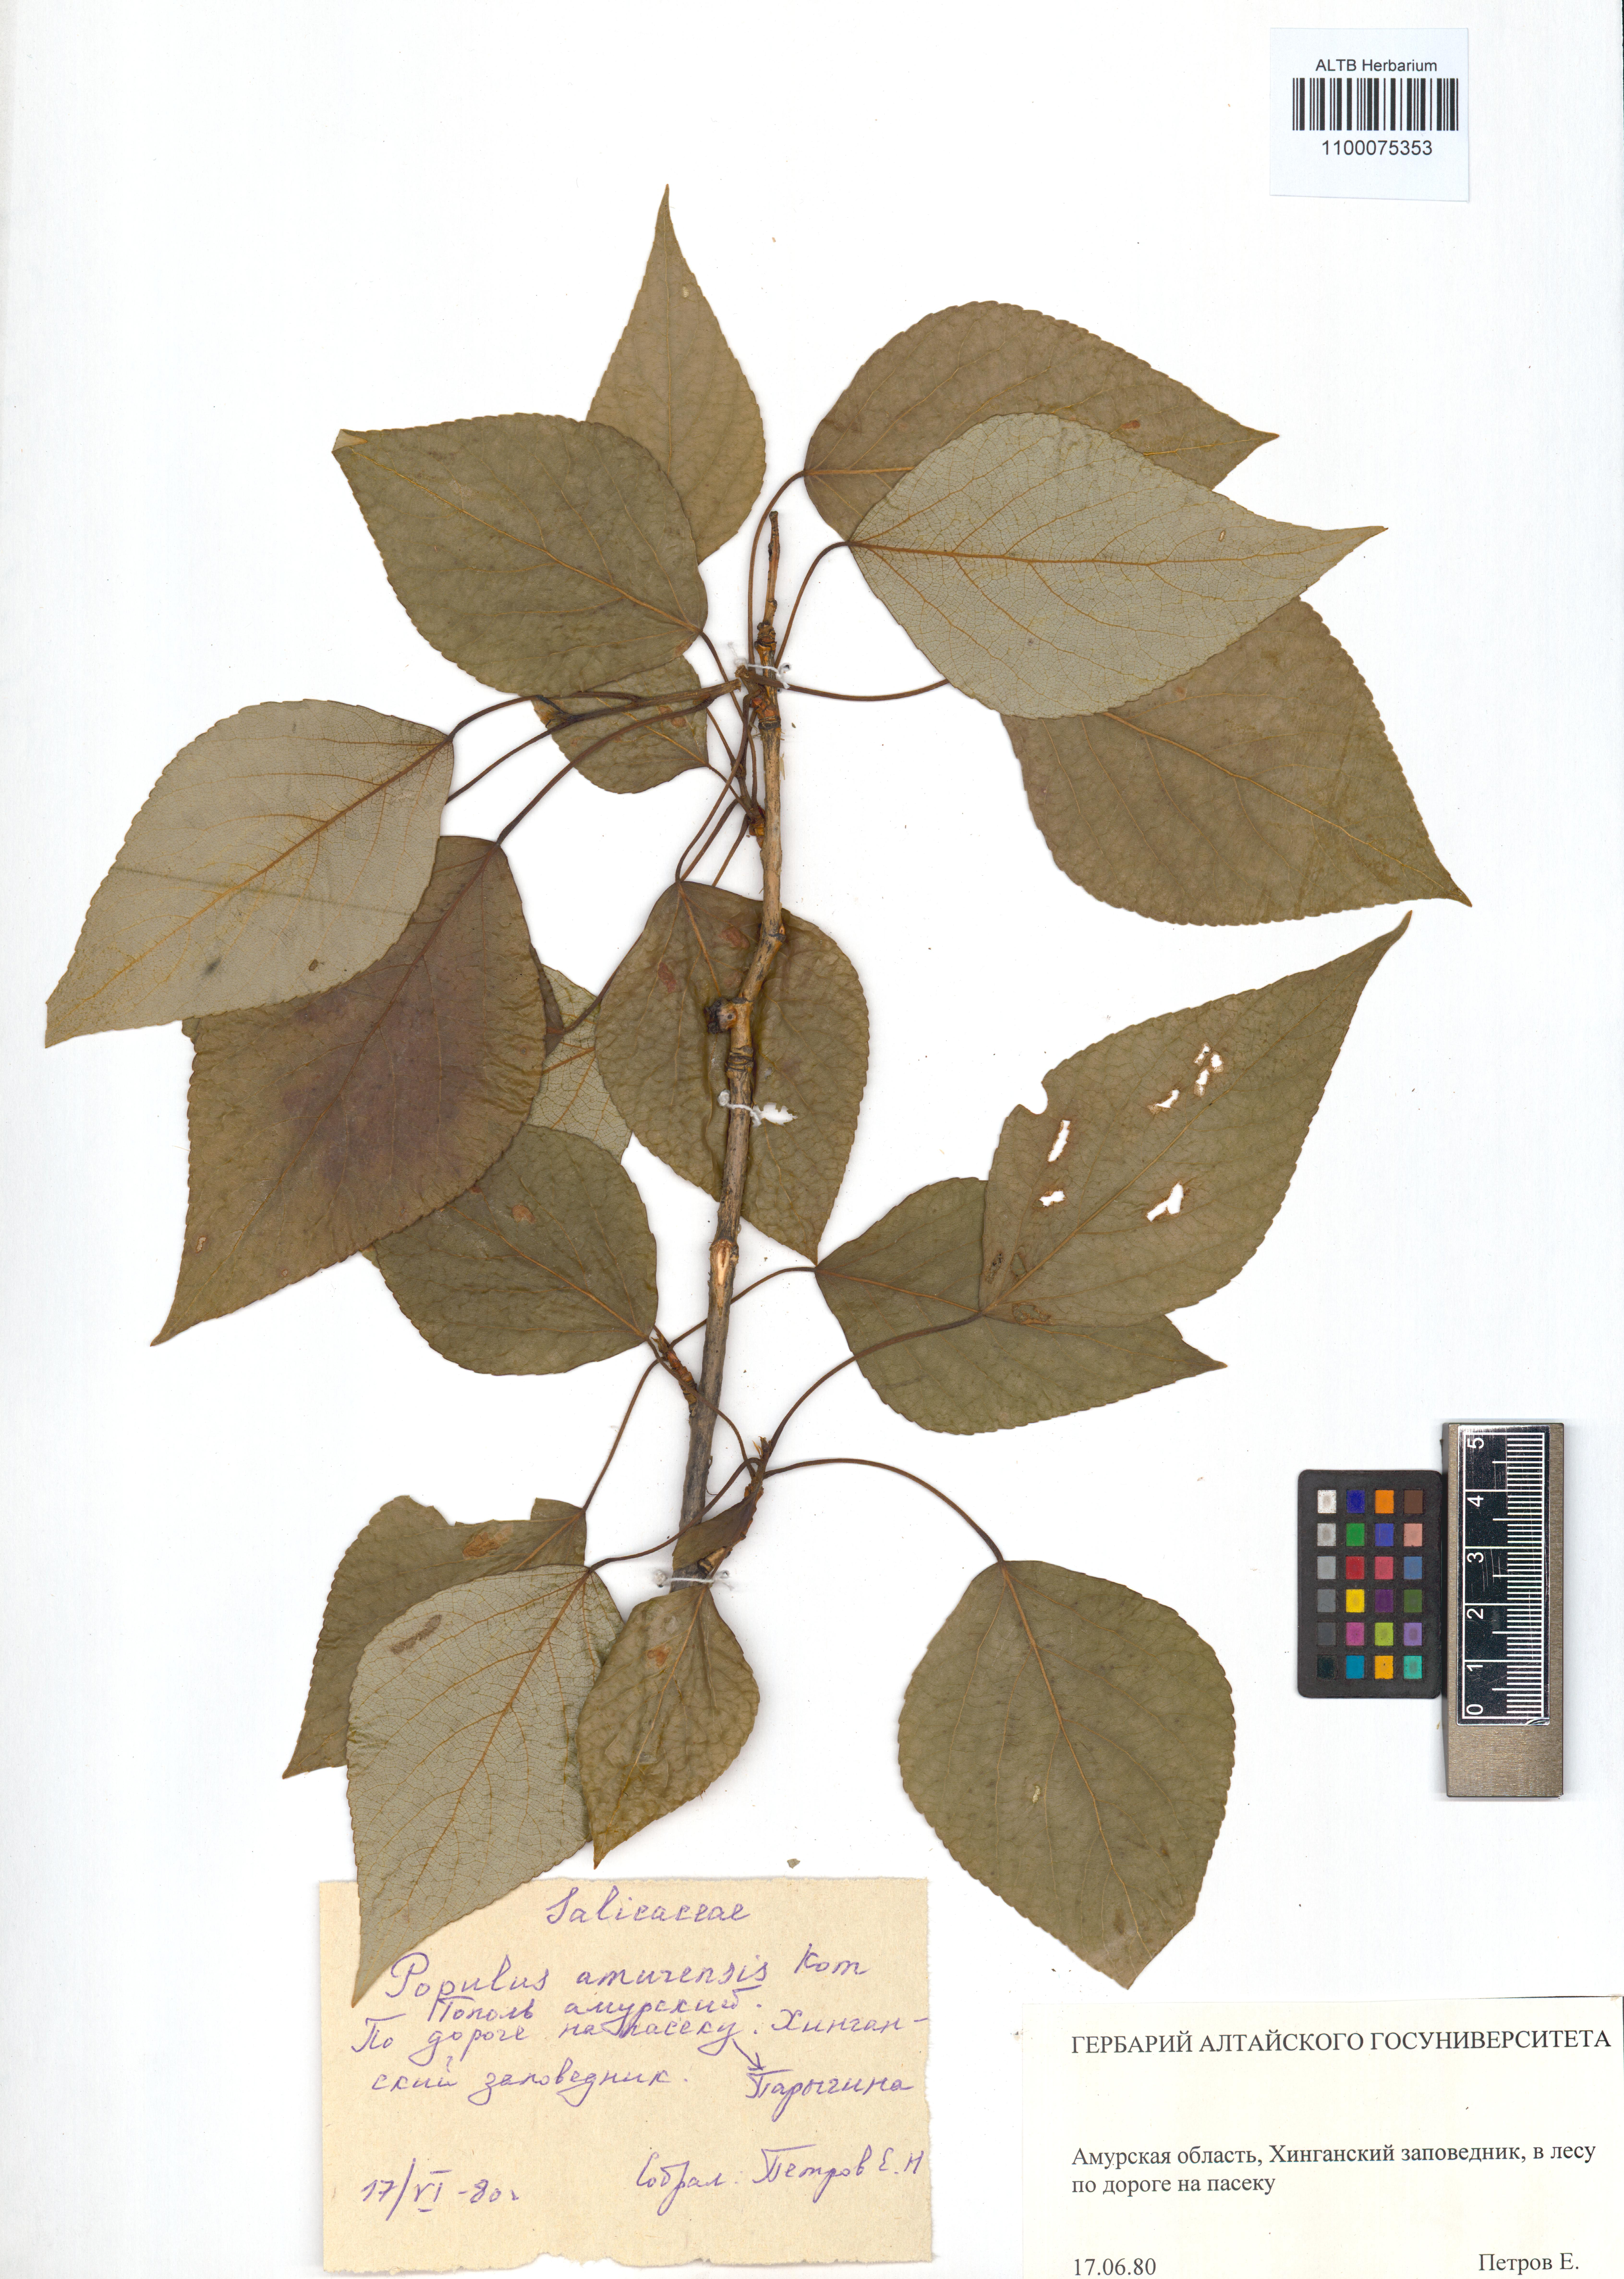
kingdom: Plantae
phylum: Tracheophyta
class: Magnoliopsida
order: Malpighiales
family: Salicaceae
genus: Populus
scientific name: Populus amurensis
